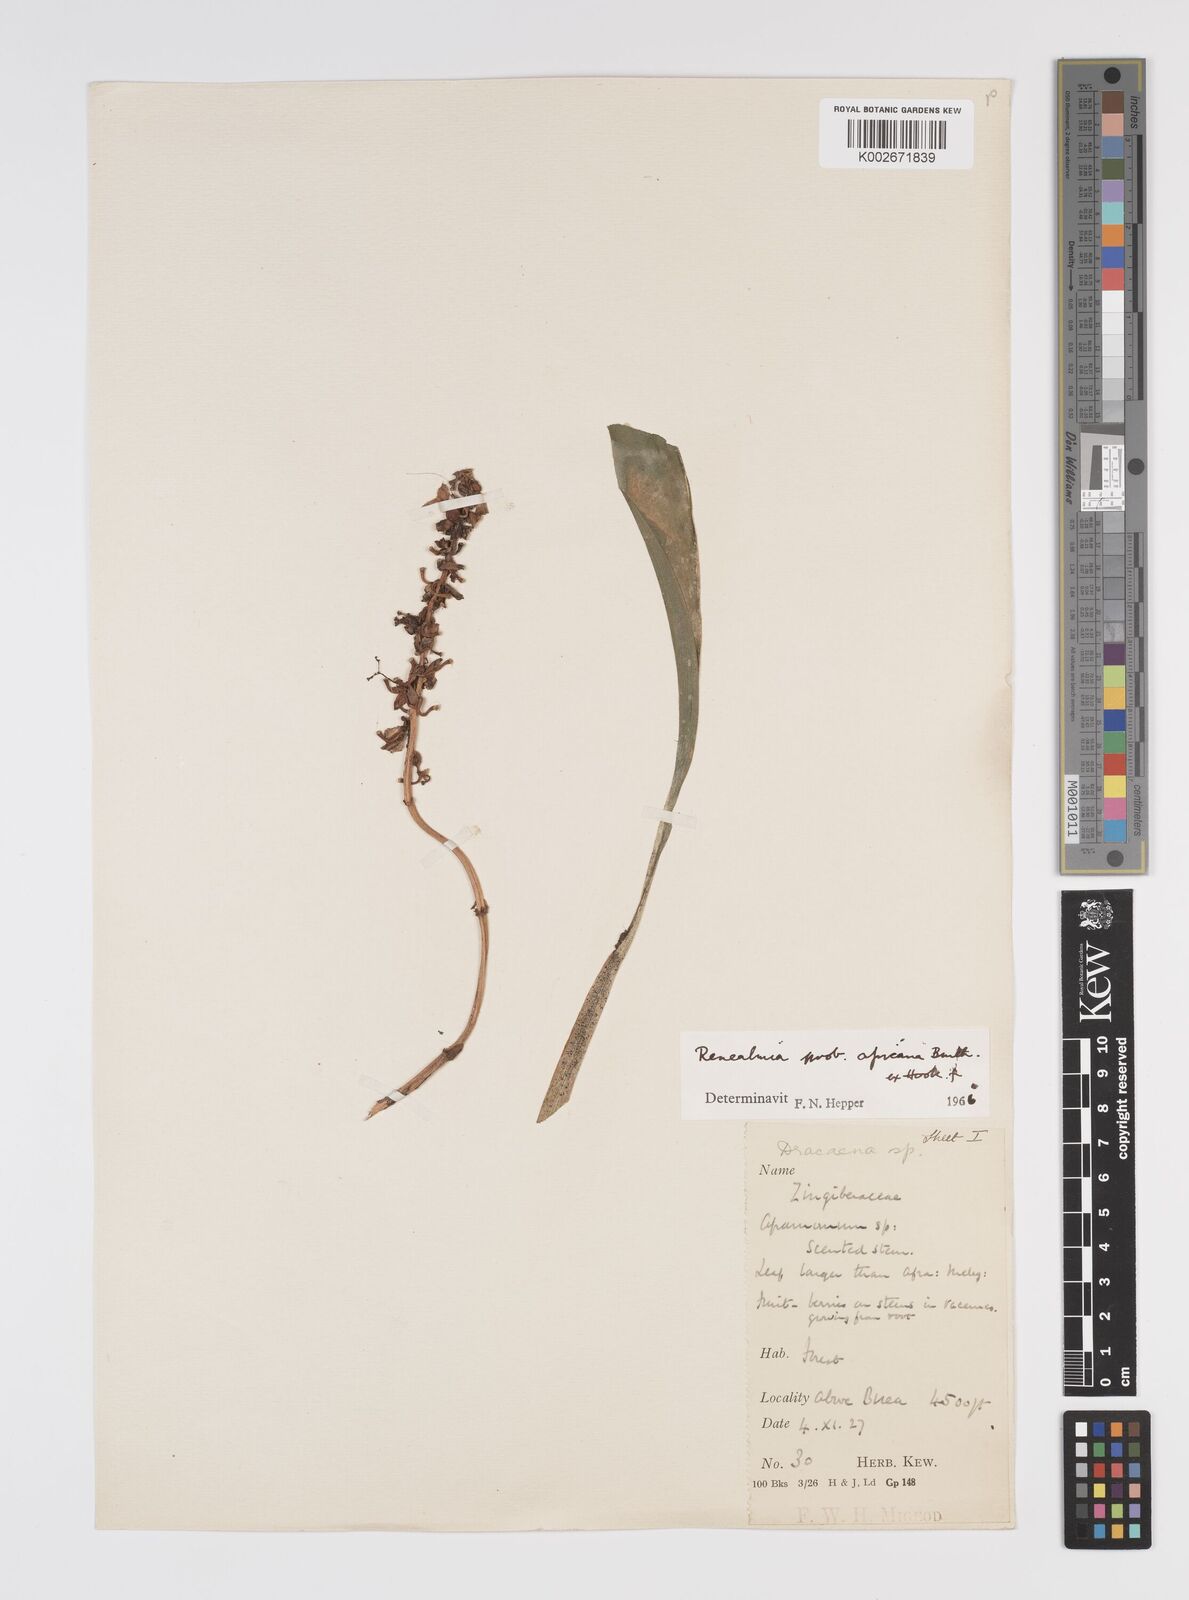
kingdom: Plantae
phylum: Tracheophyta
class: Liliopsida
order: Zingiberales
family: Zingiberaceae
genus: Renealmia
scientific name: Renealmia africana
